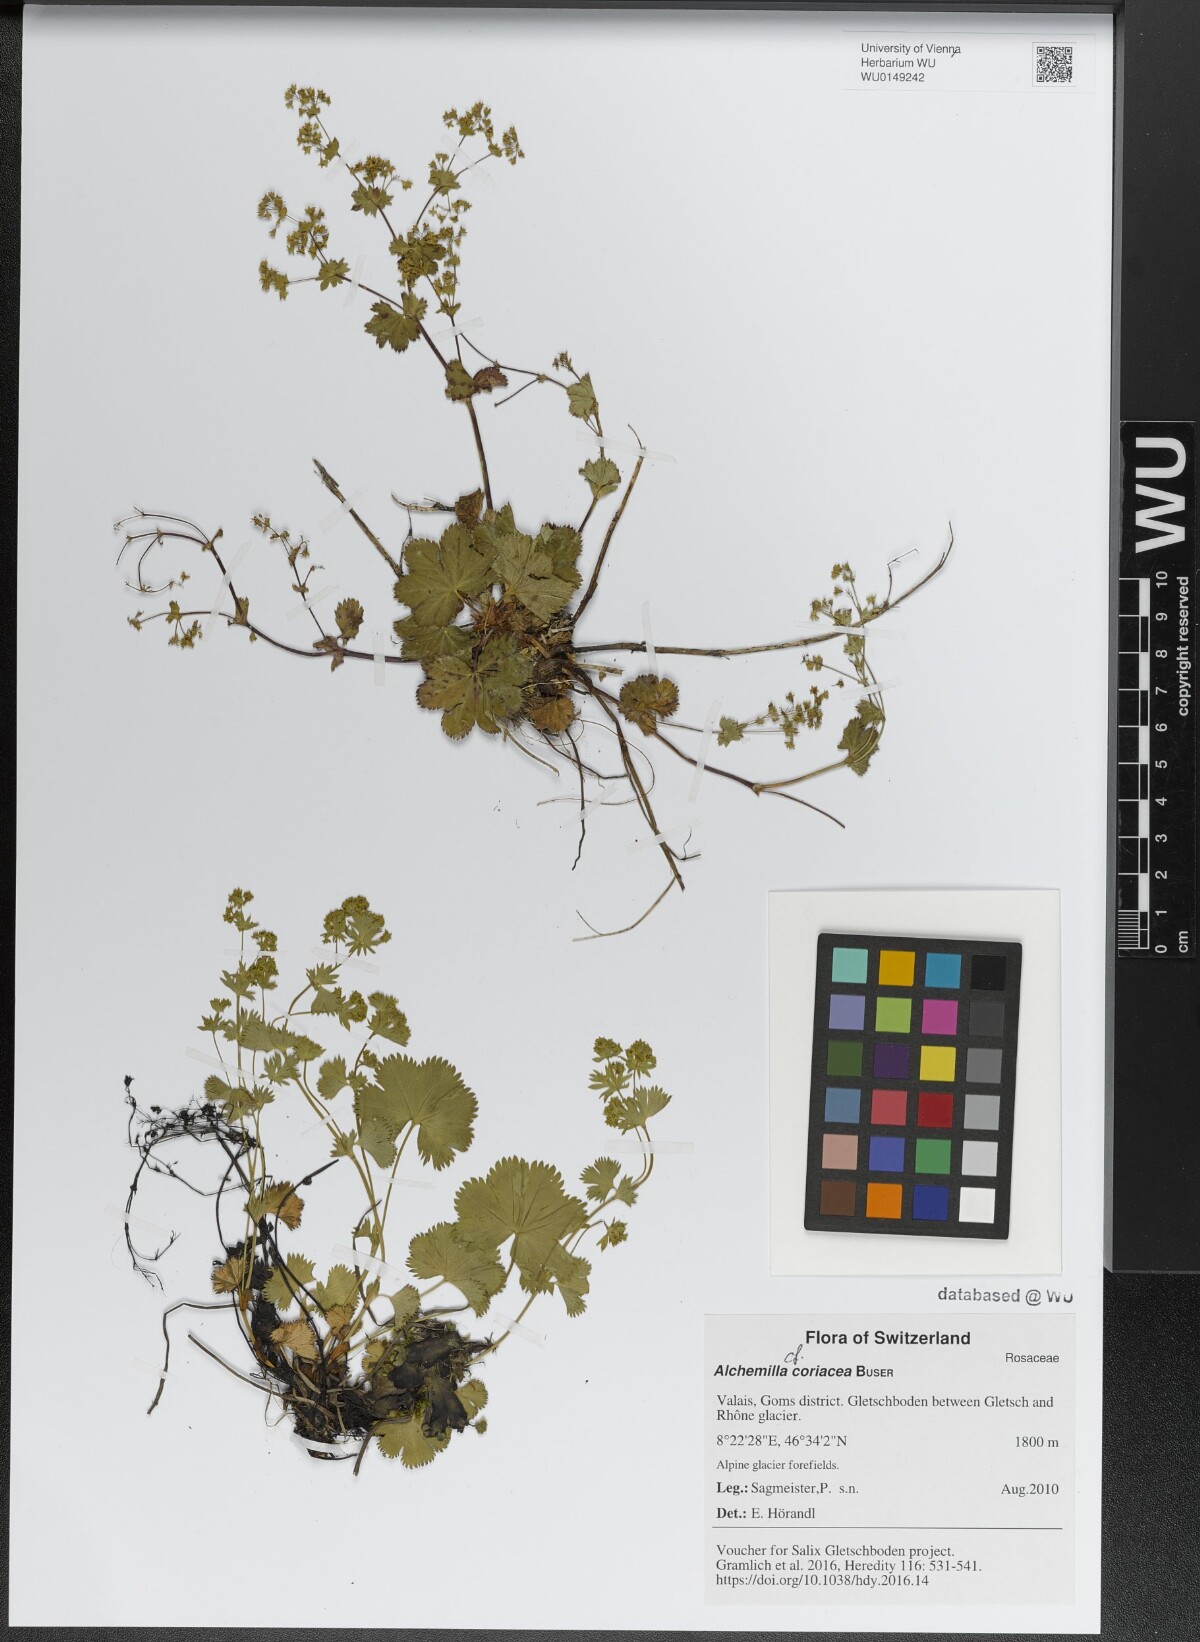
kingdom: Plantae
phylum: Tracheophyta
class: Magnoliopsida
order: Rosales
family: Rosaceae
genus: Alchemilla
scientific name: Alchemilla coriacea
